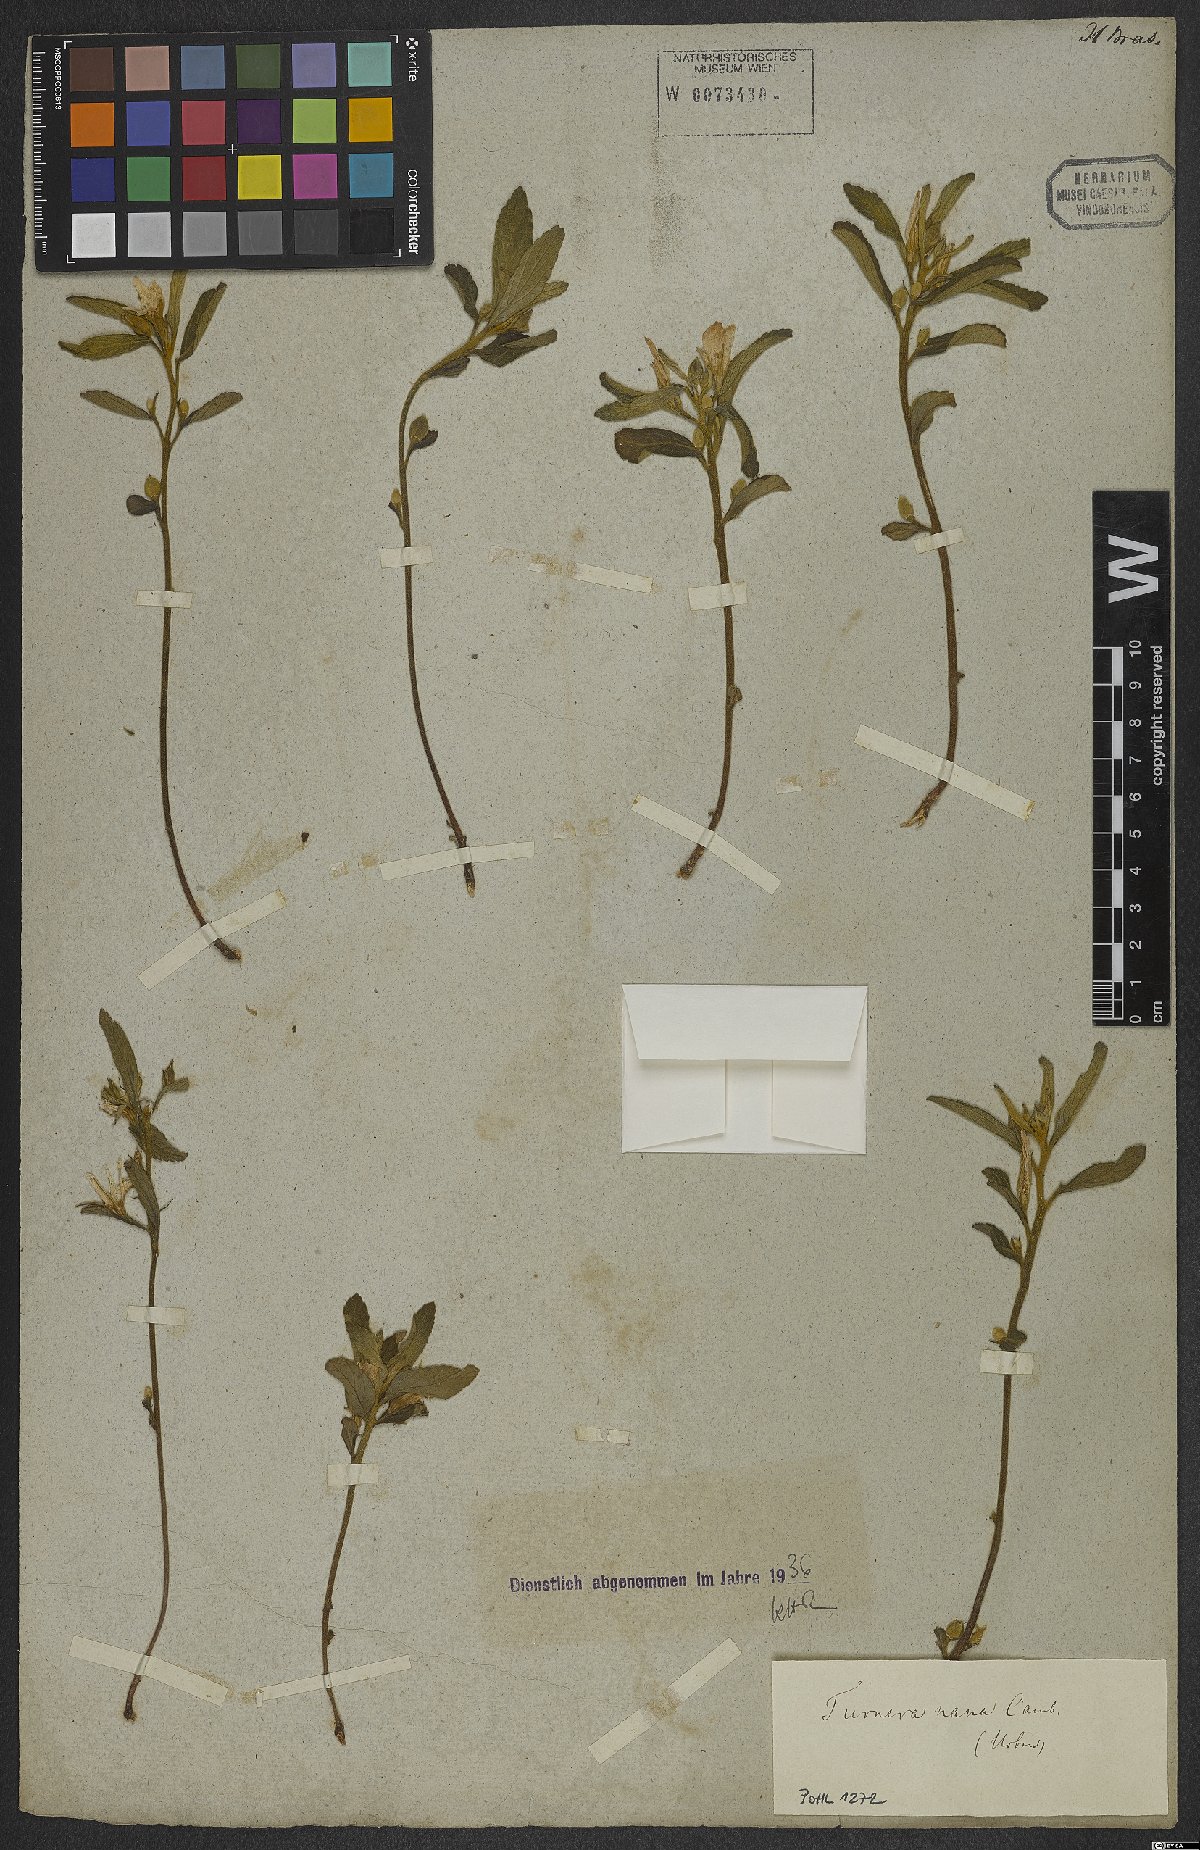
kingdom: Plantae
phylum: Tracheophyta
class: Magnoliopsida
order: Malpighiales
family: Turneraceae
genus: Turnera
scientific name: Turnera opifera
